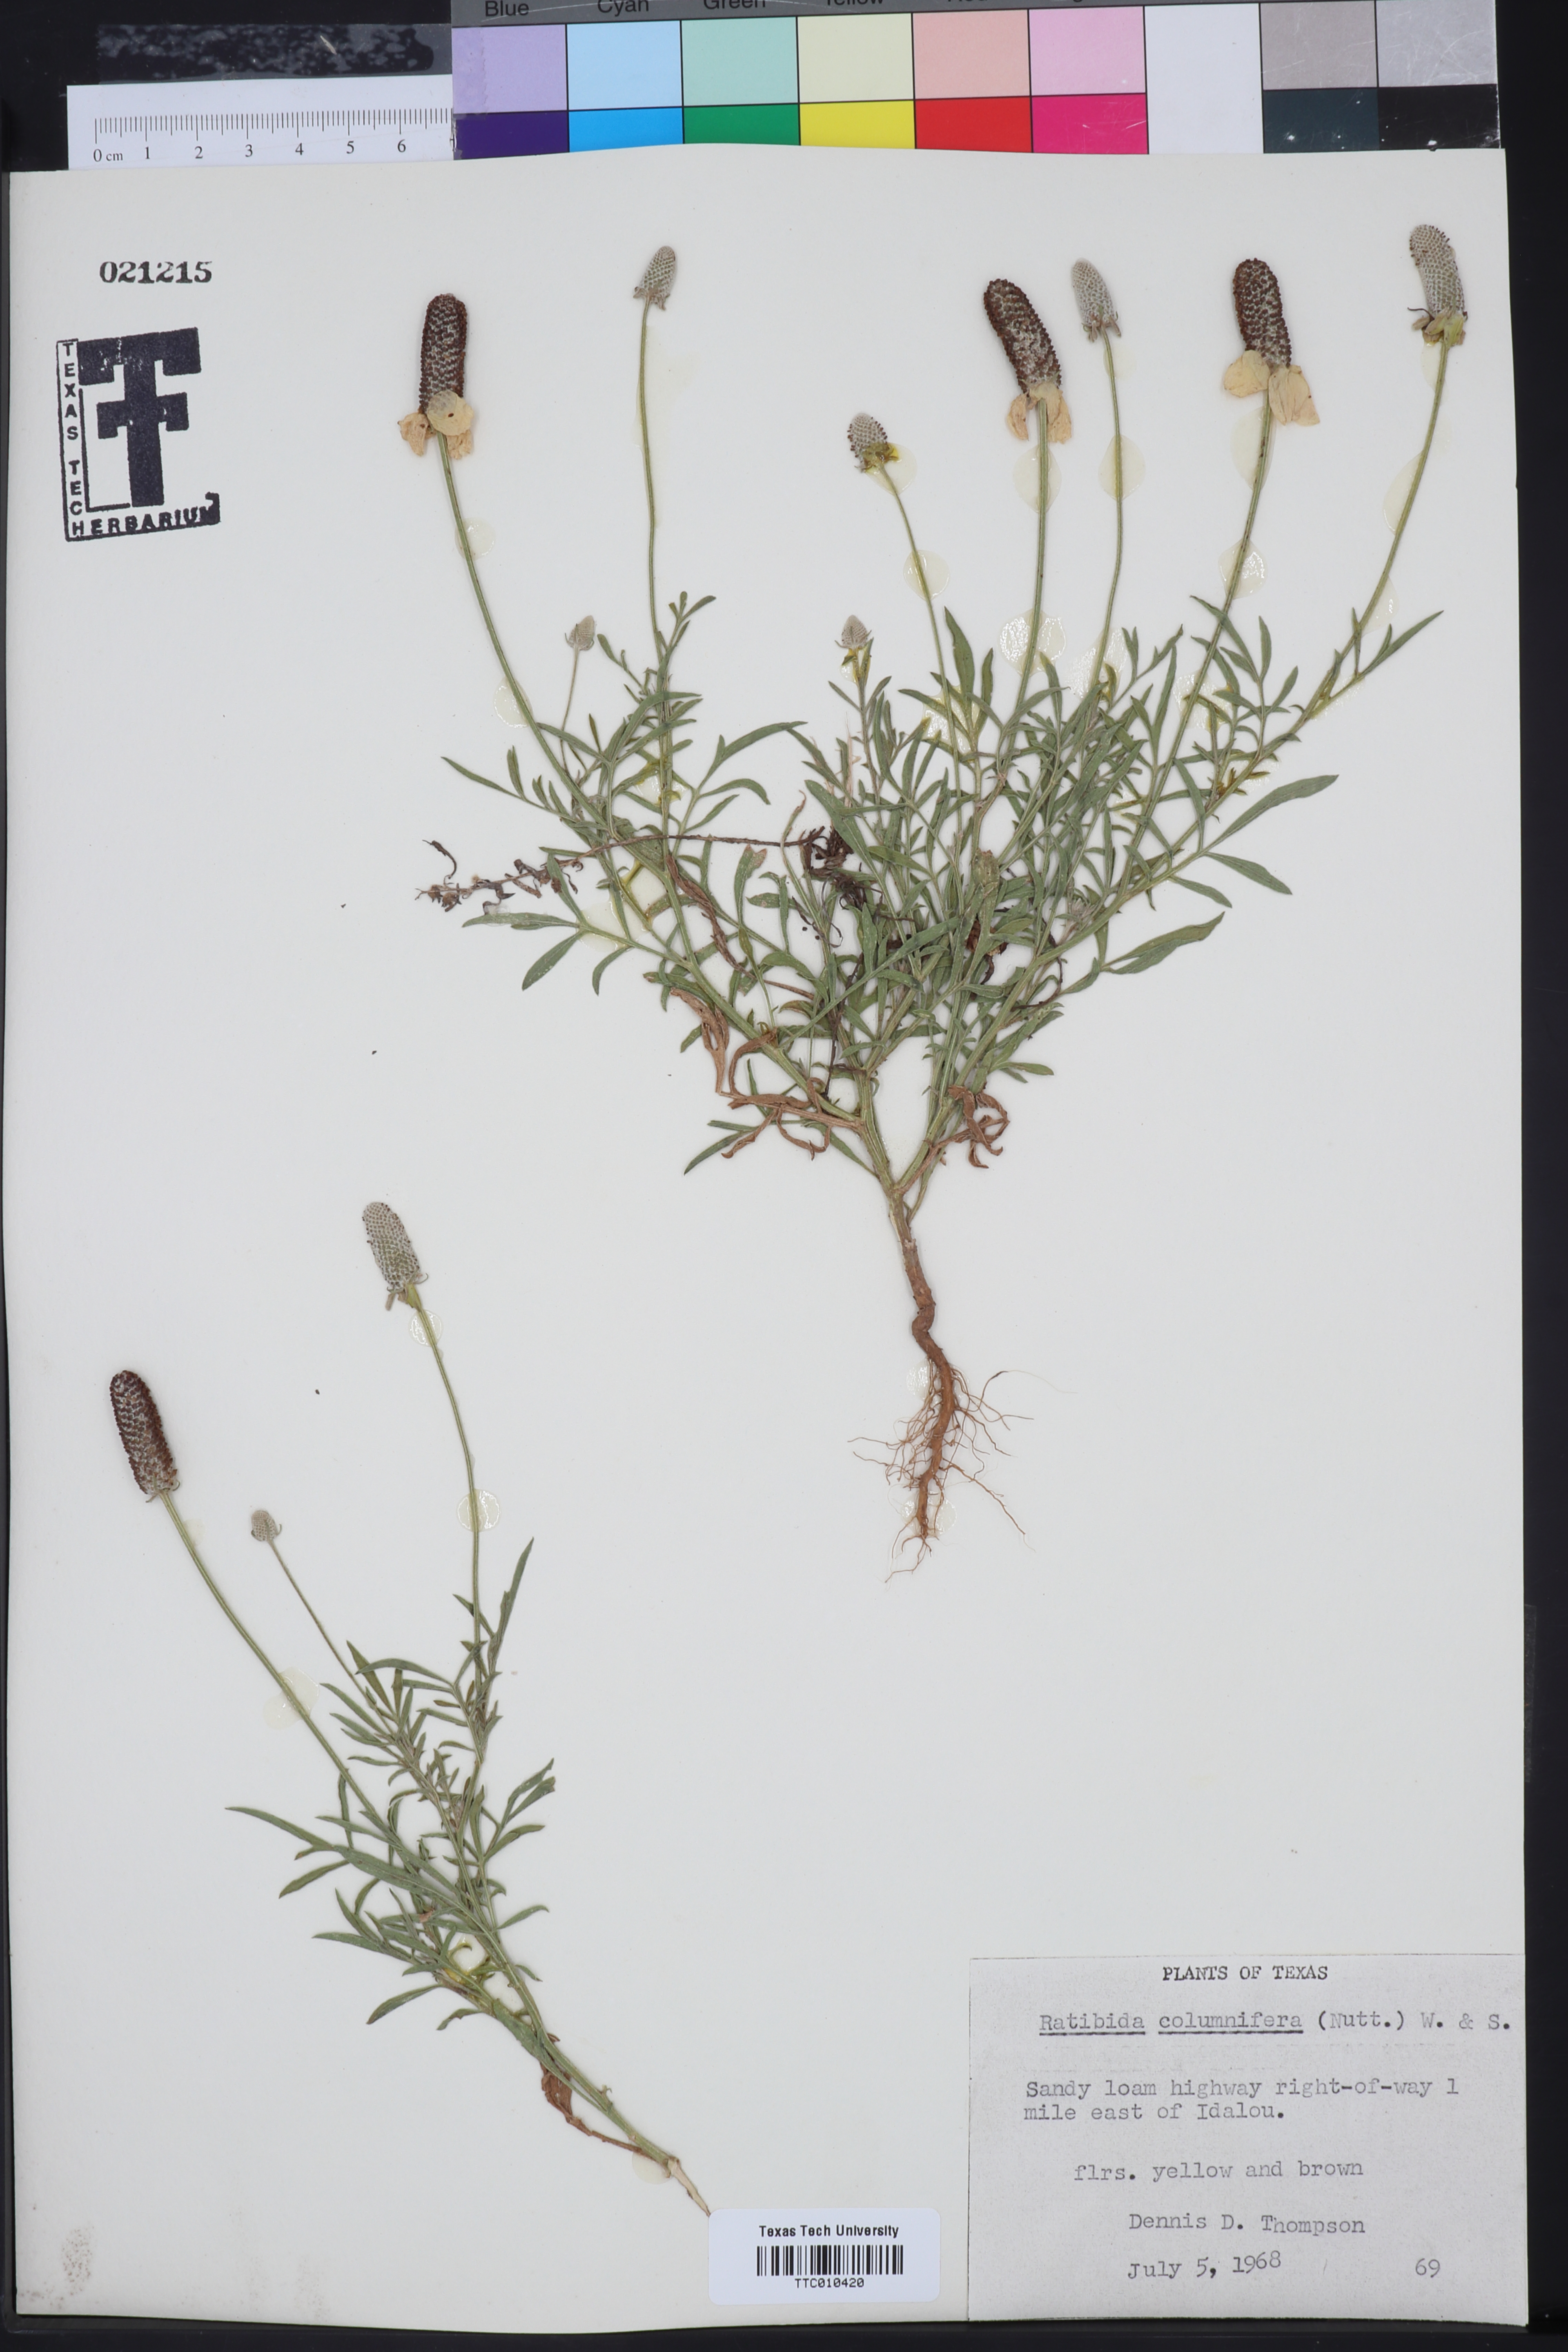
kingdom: Plantae
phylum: Tracheophyta
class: Magnoliopsida
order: Asterales
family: Asteraceae
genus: Ratibida
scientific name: Ratibida columnifera
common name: Prairie coneflower
